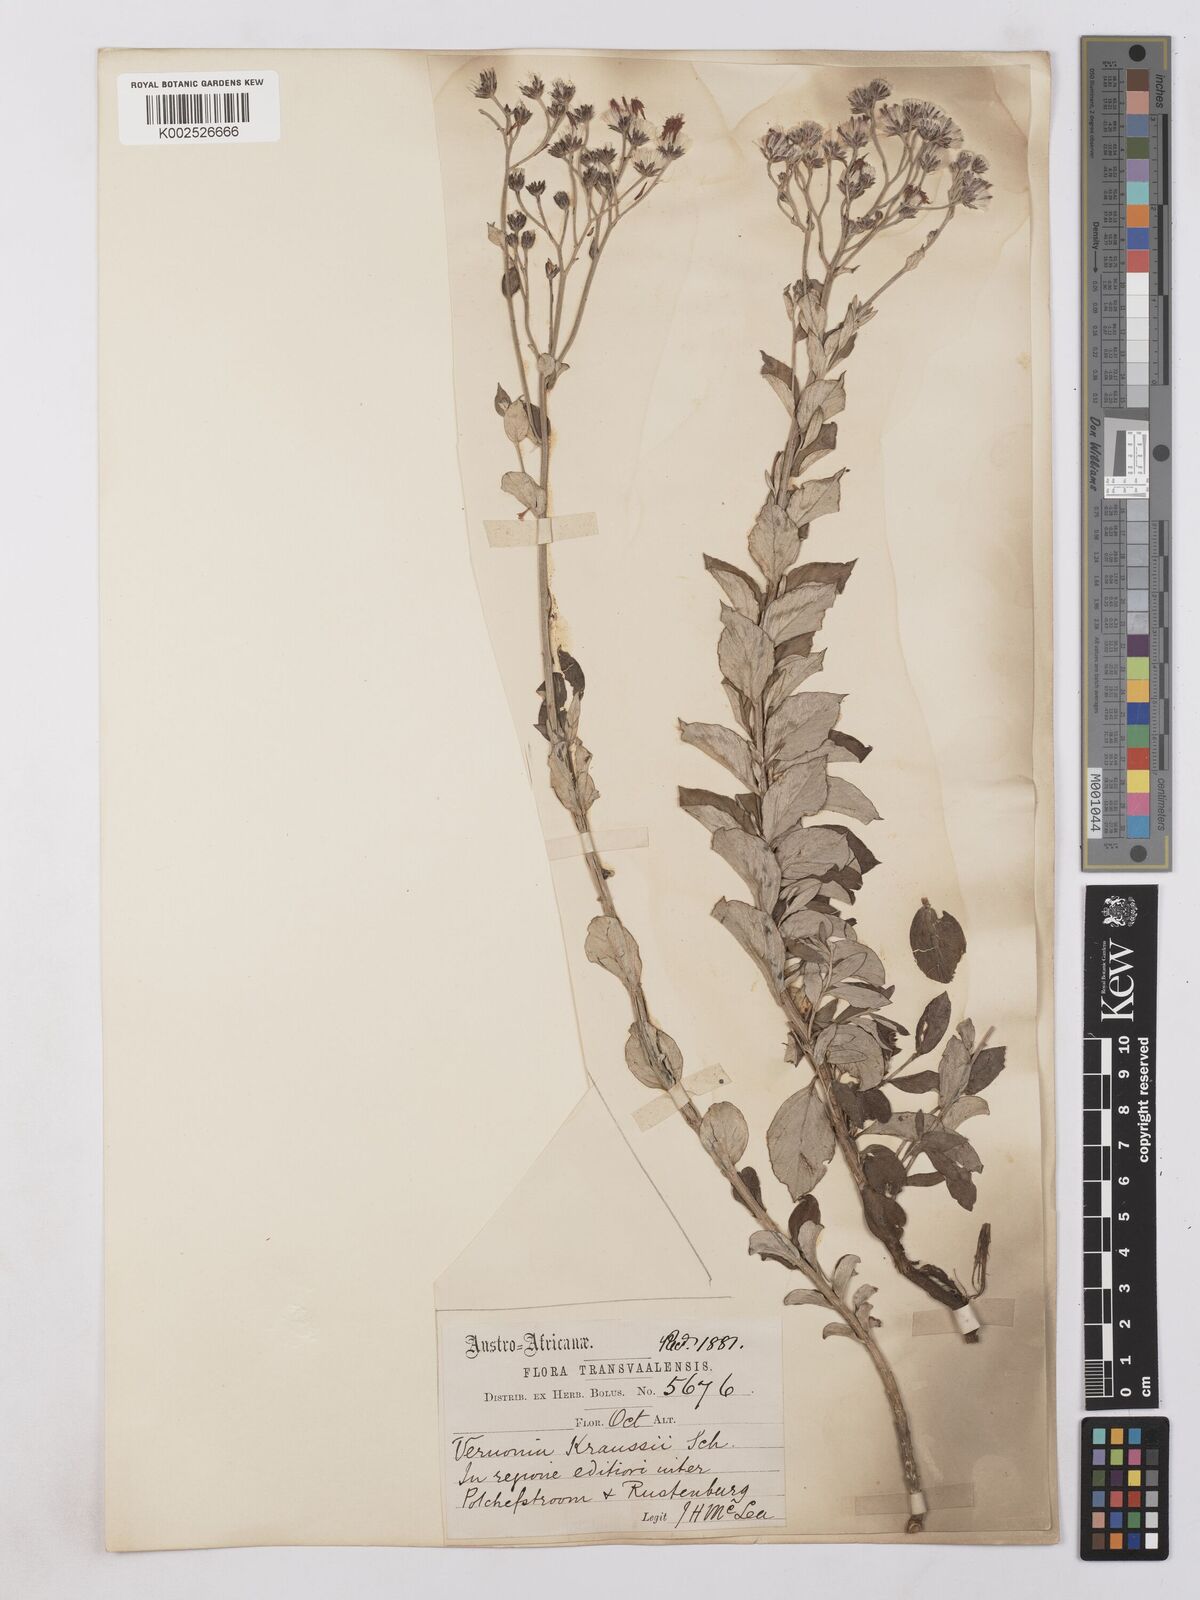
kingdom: Plantae
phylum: Tracheophyta
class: Magnoliopsida
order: Asterales
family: Asteraceae
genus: Hilliardiella
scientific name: Hilliardiella oligocephala
